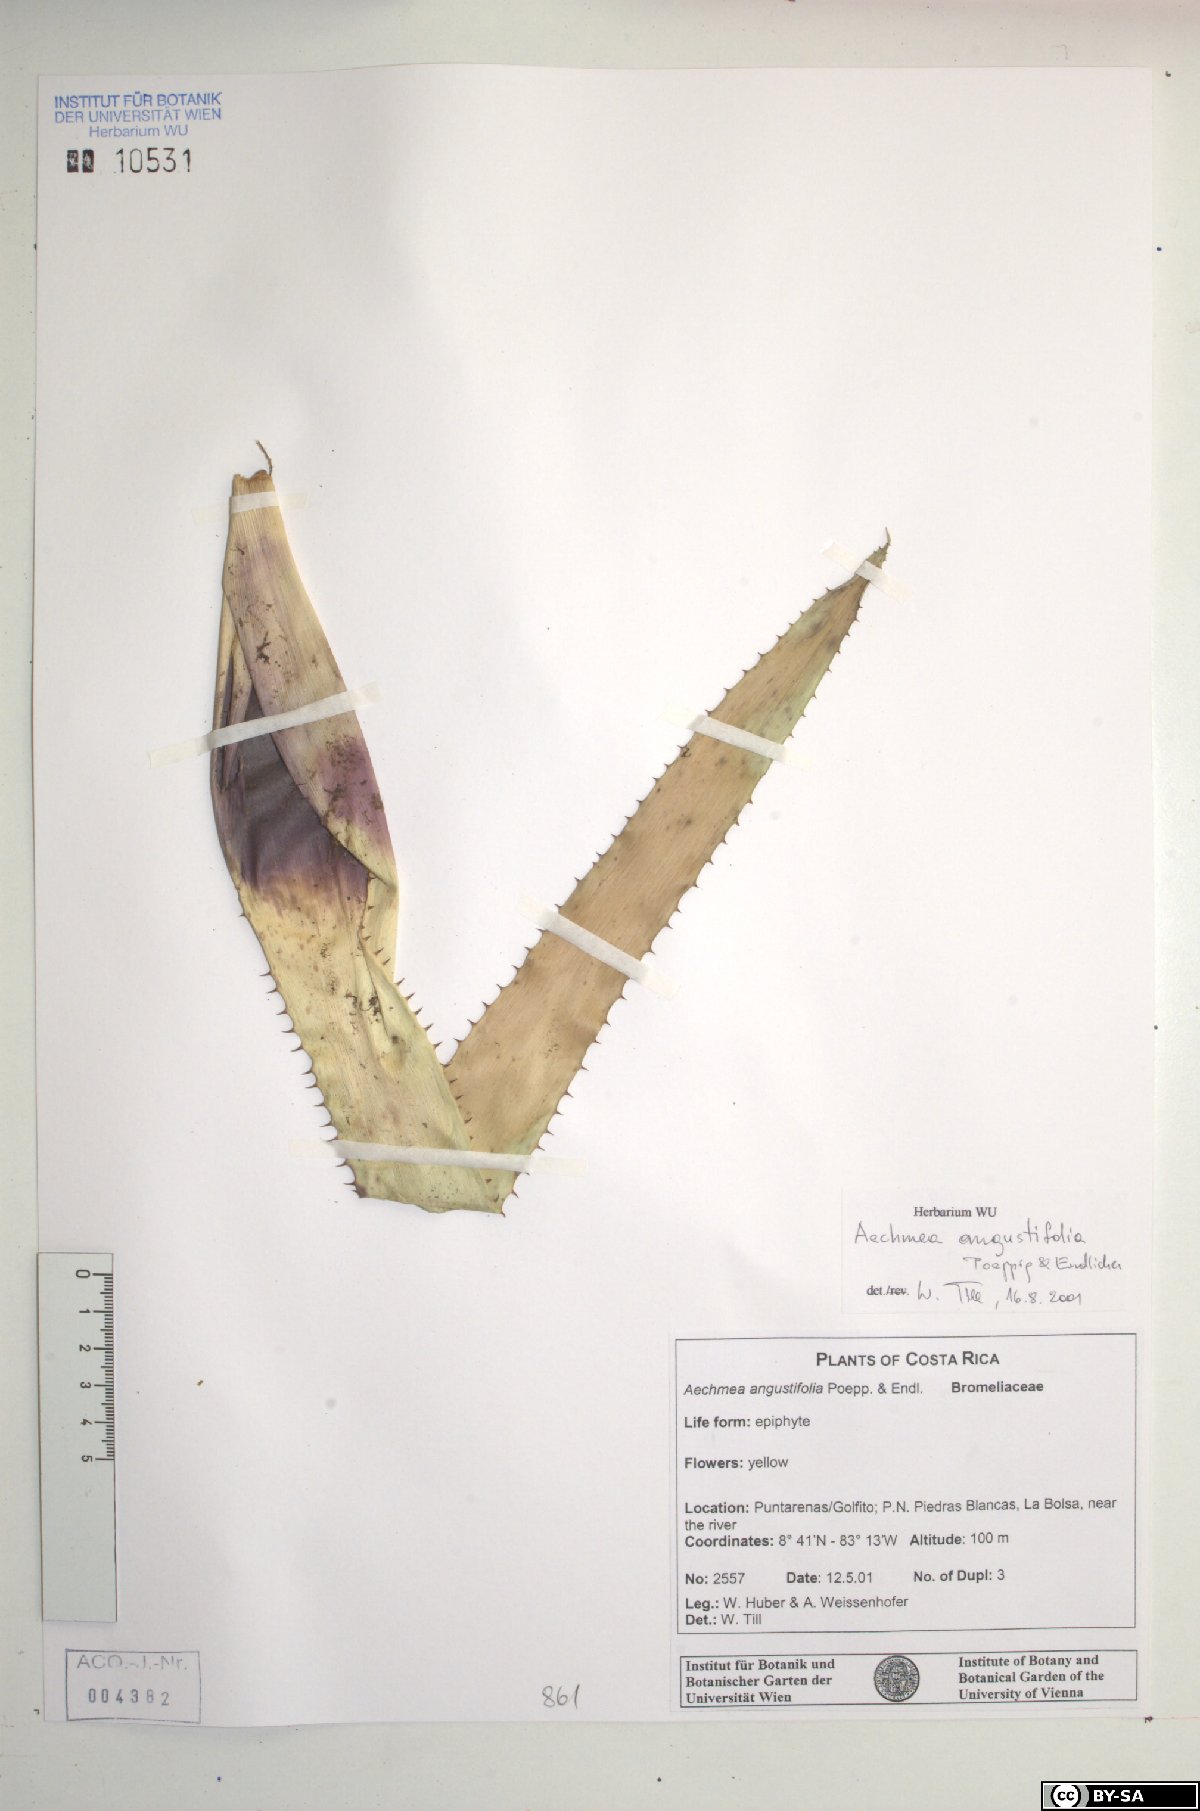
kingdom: Plantae
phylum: Tracheophyta
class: Liliopsida
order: Poales
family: Bromeliaceae
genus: Aechmea
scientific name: Aechmea angustifolia
